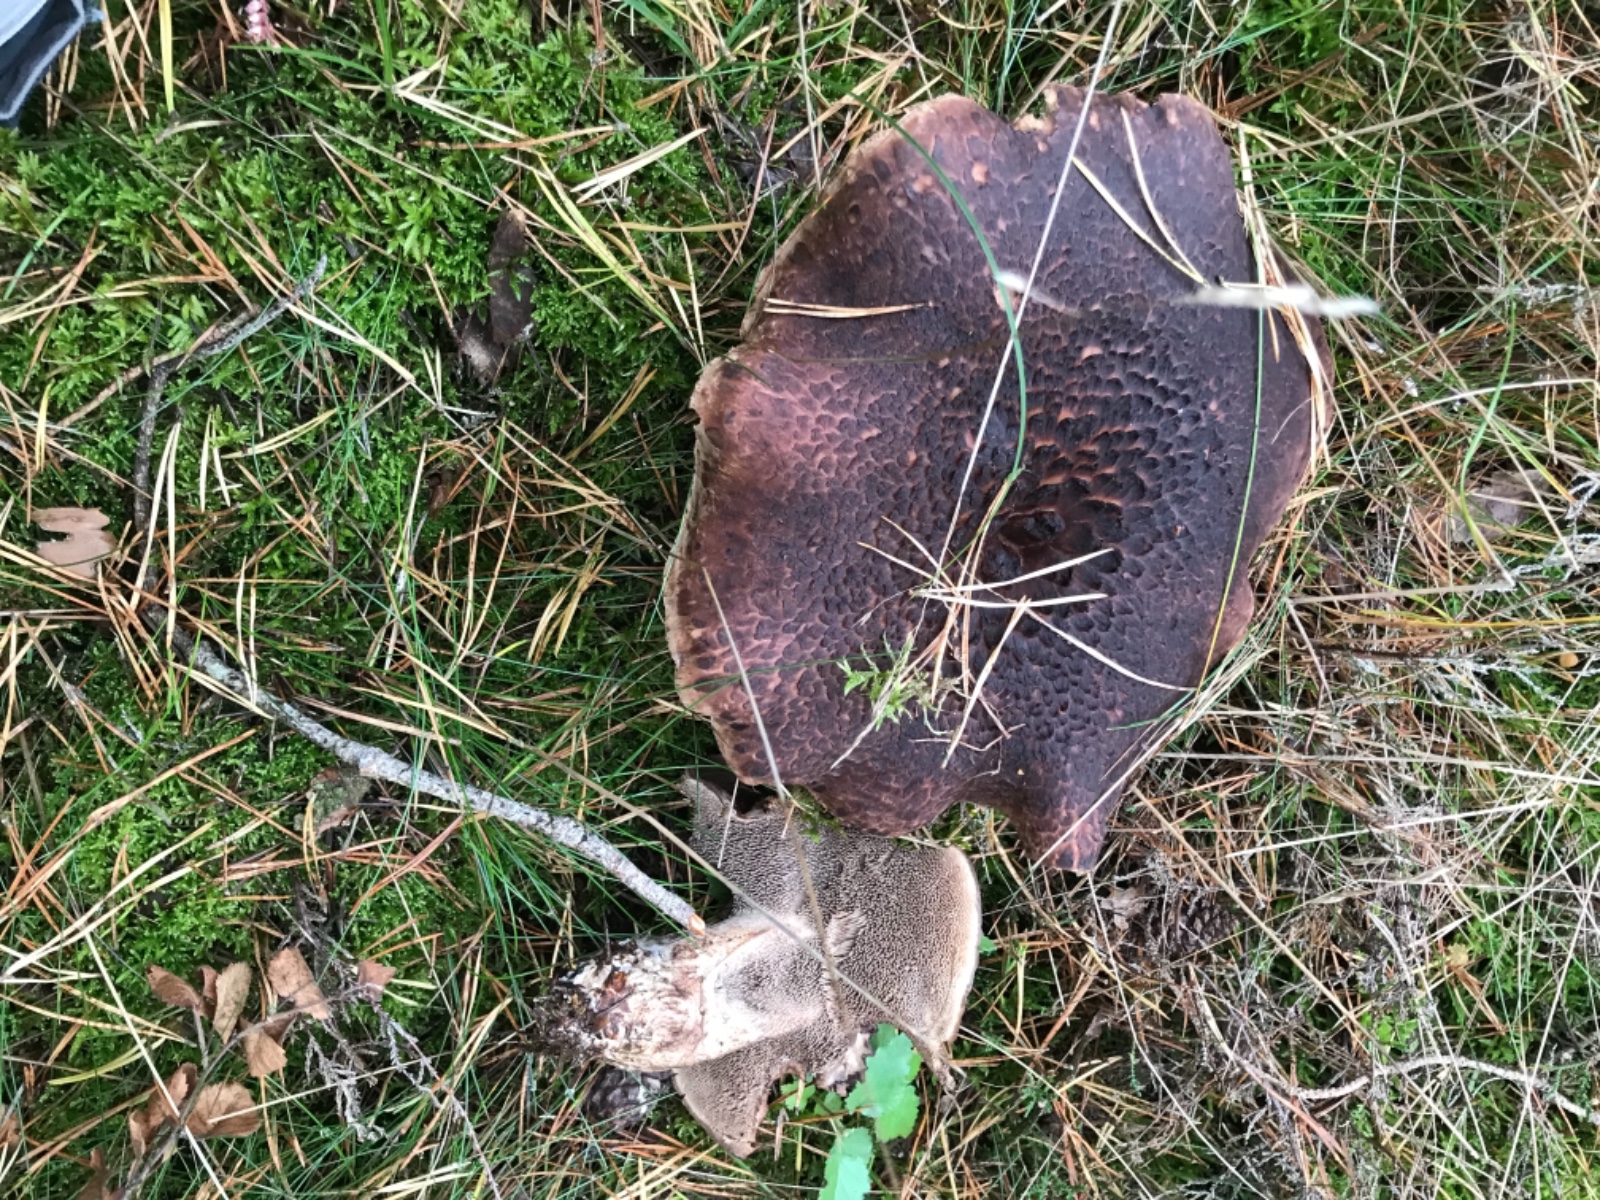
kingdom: Fungi
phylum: Basidiomycota
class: Agaricomycetes
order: Thelephorales
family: Bankeraceae
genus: Sarcodon
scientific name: Sarcodon squamosus
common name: småskællet kødpigsvamp
